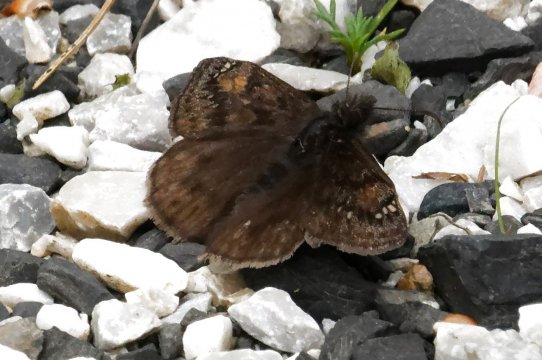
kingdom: Animalia
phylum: Arthropoda
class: Insecta
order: Lepidoptera
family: Hesperiidae
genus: Gesta
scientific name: Gesta
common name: Juvenal's Duskywing
